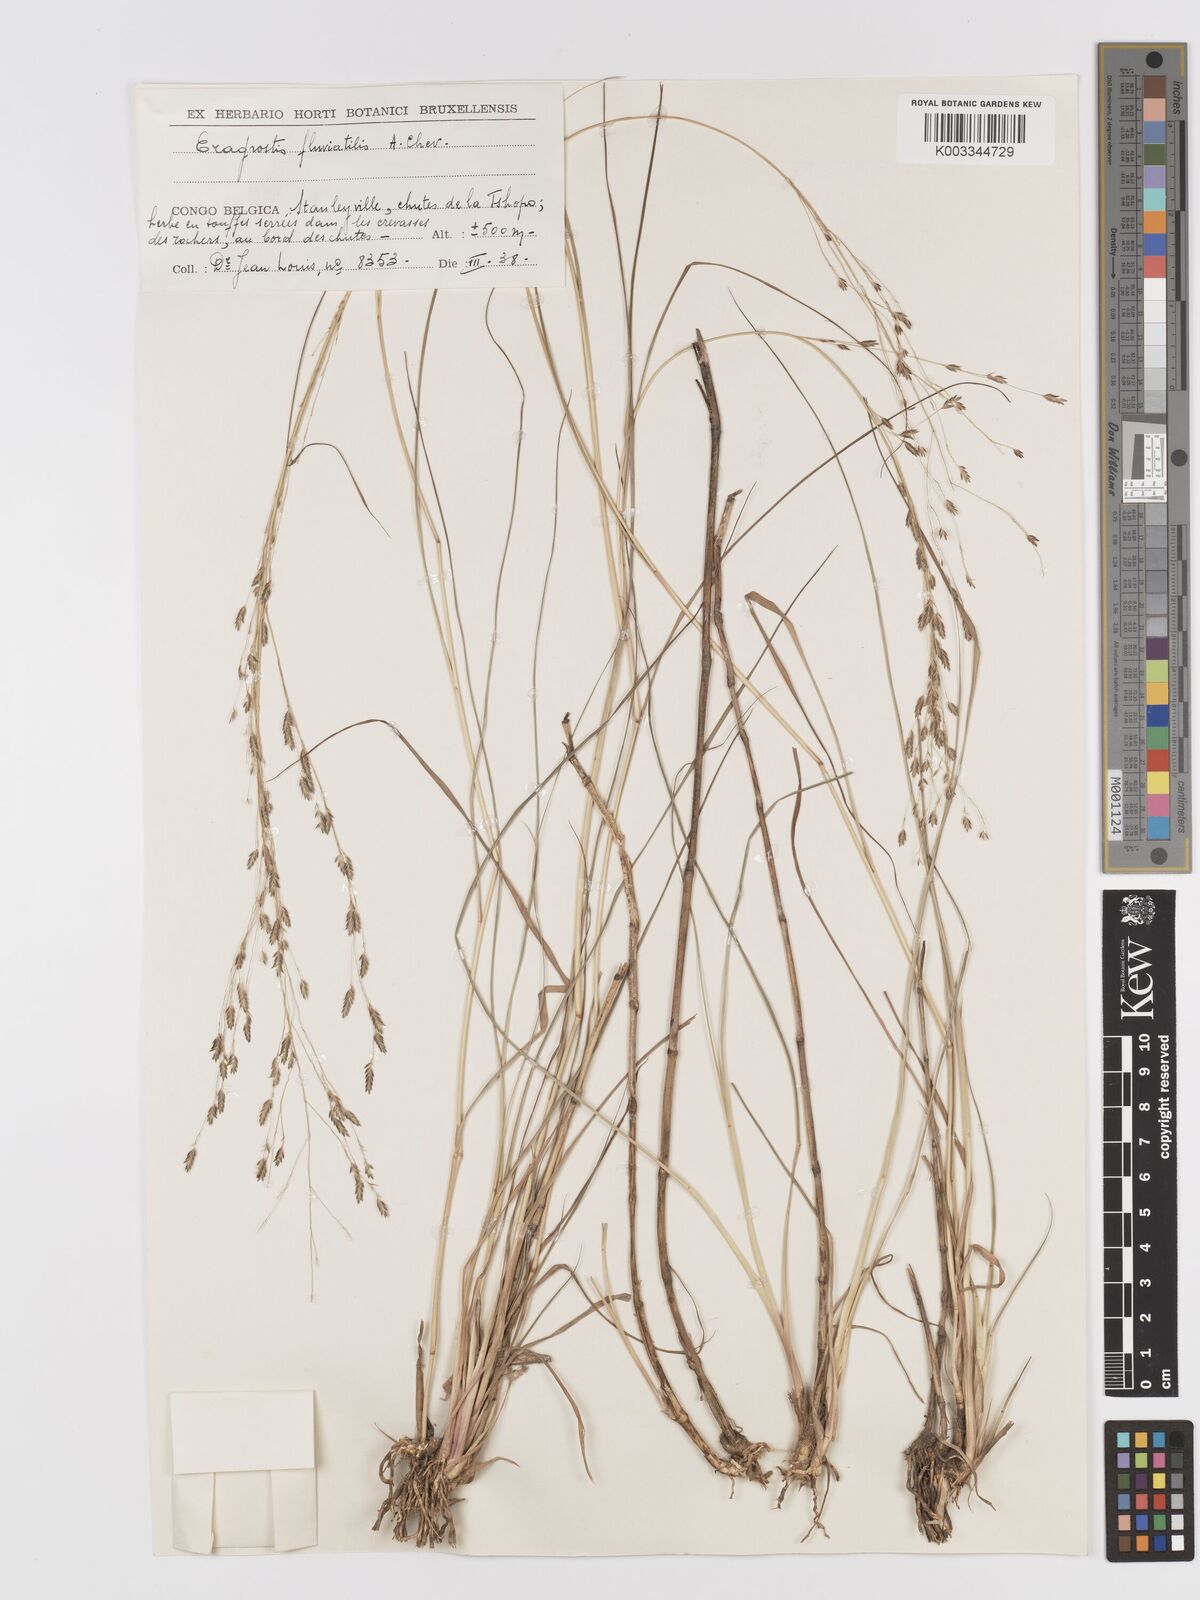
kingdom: Plantae
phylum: Tracheophyta
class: Liliopsida
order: Poales
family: Poaceae
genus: Eragrostis
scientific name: Eragrostis barteri
